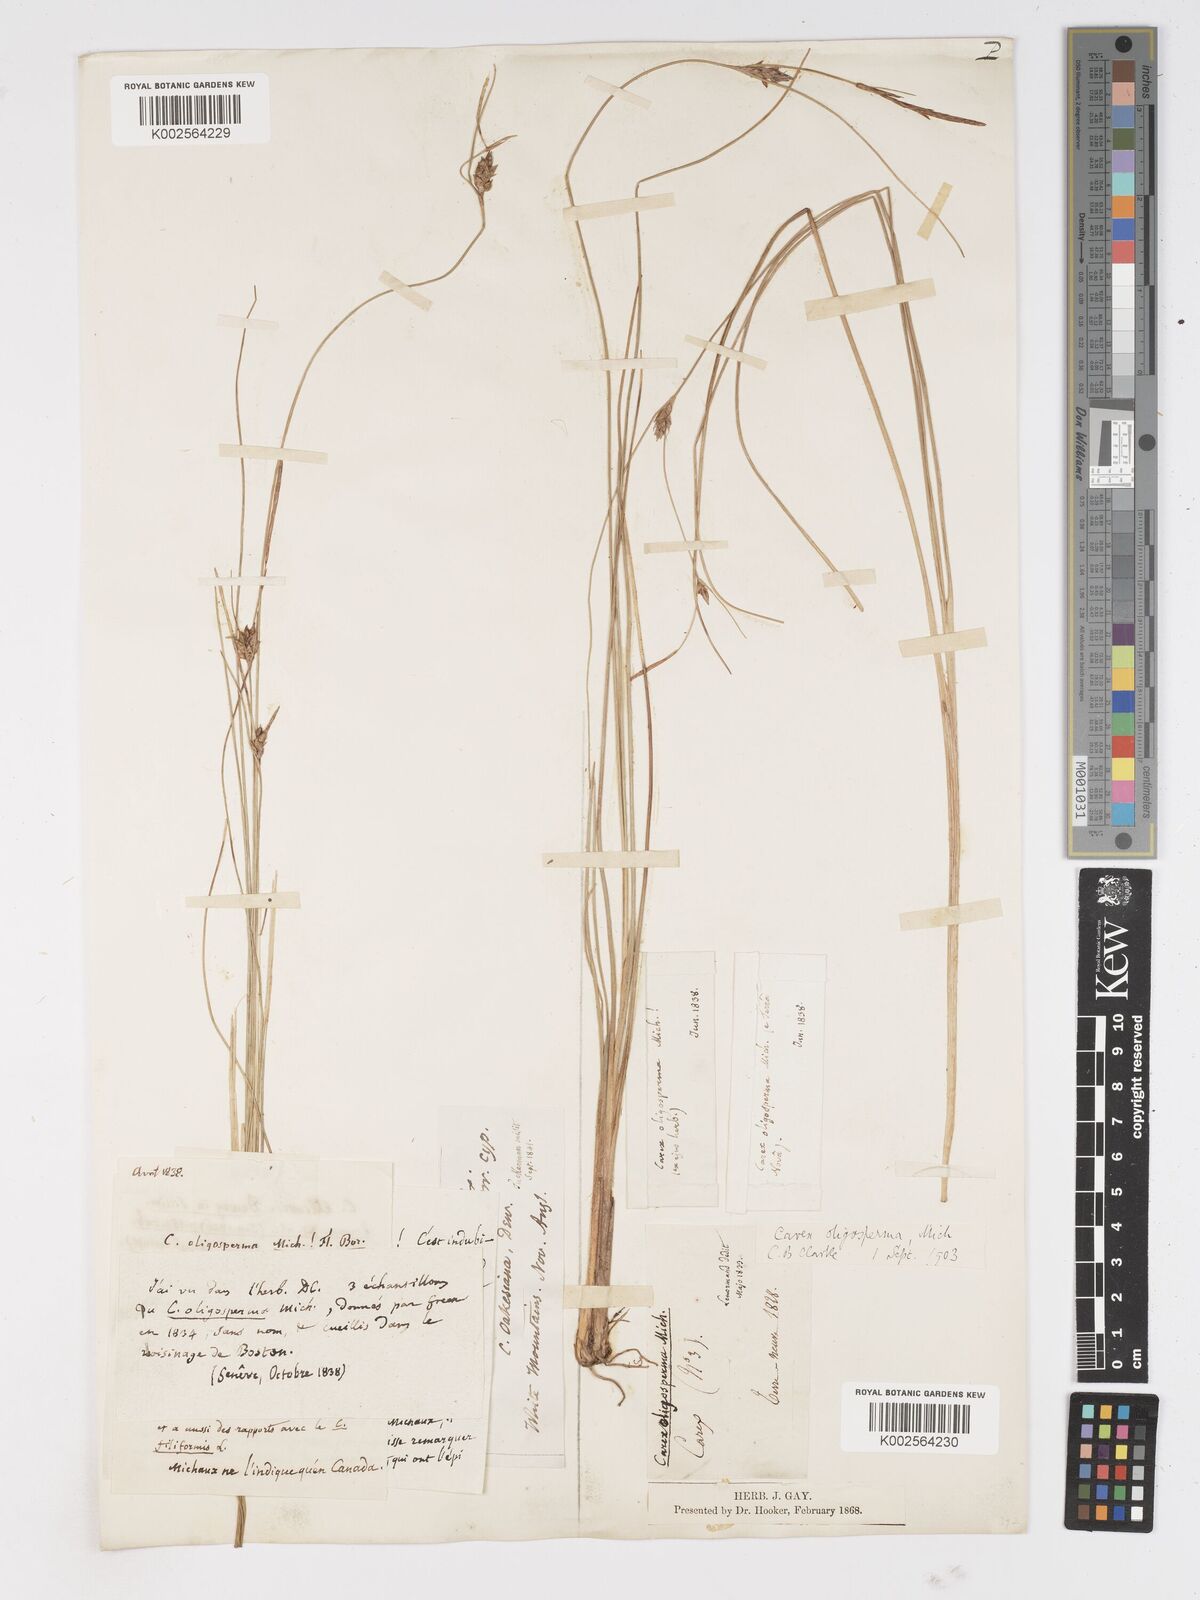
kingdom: Plantae
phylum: Tracheophyta
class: Liliopsida
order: Poales
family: Cyperaceae
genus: Carex
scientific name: Carex oligosperma
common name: Few-seed sedge
